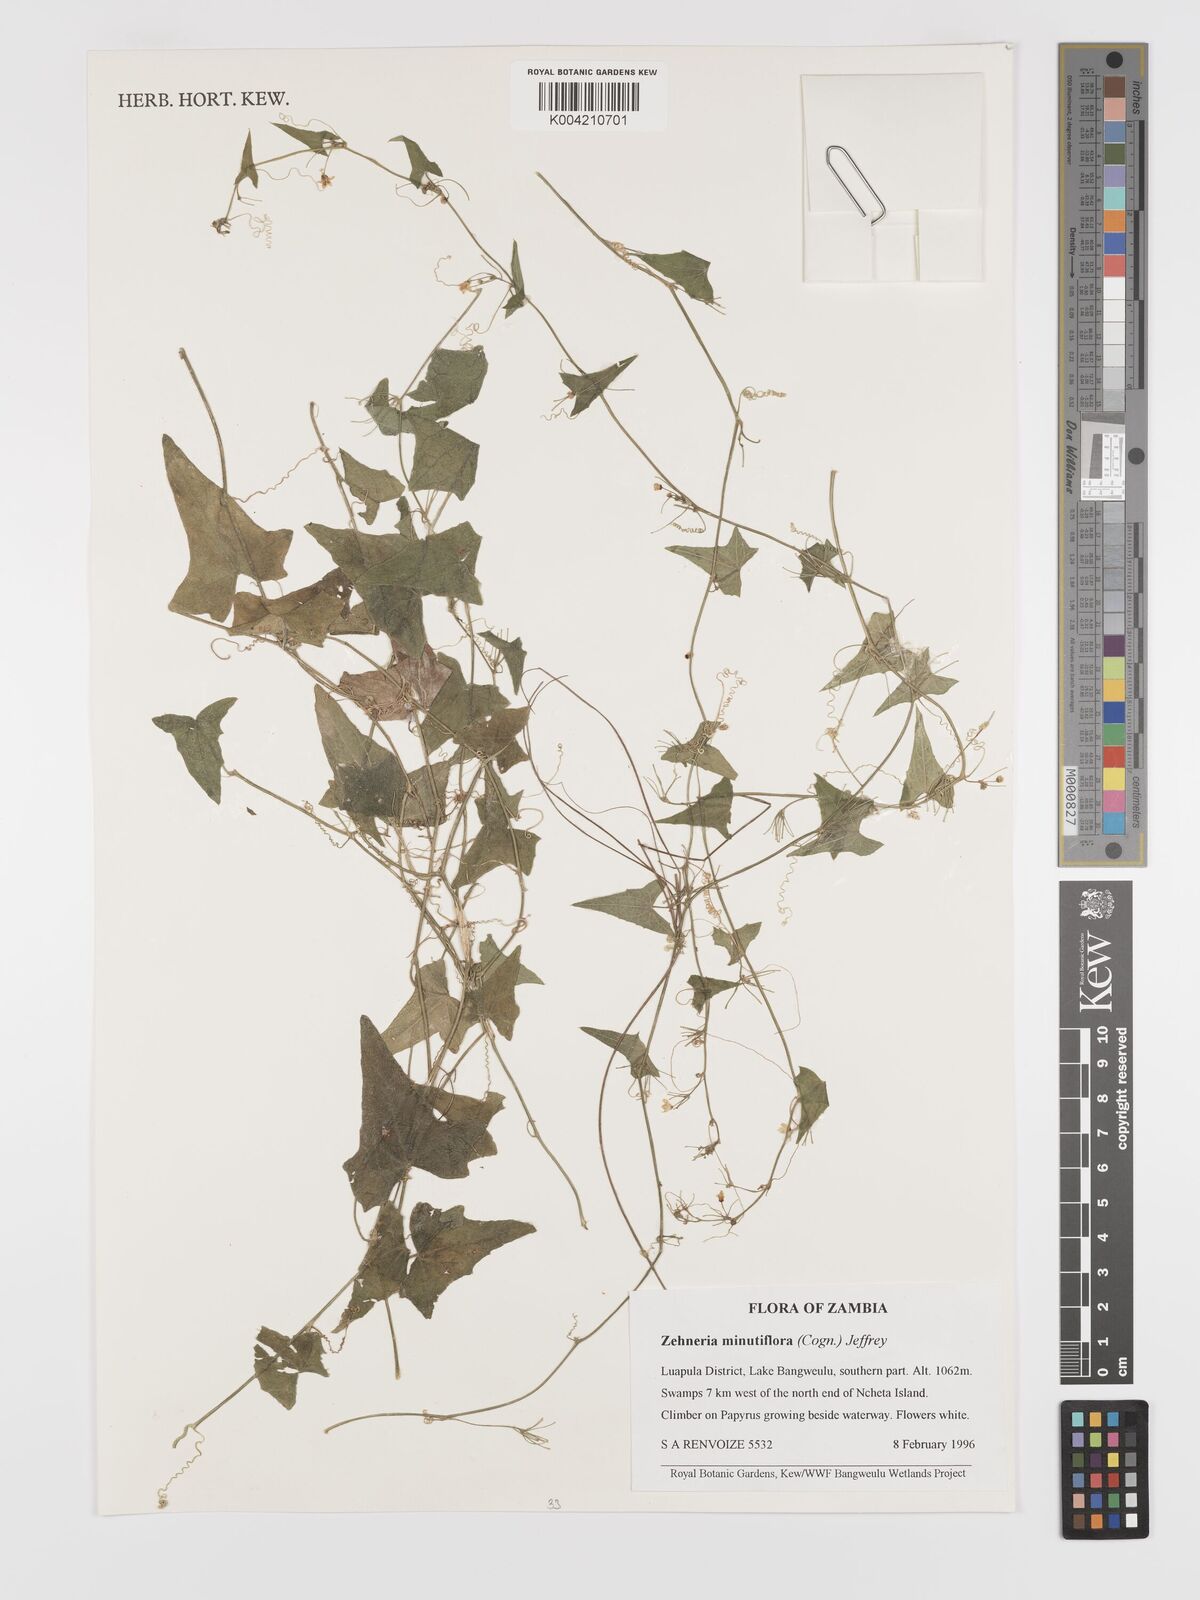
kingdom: Plantae
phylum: Tracheophyta
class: Magnoliopsida
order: Cucurbitales
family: Cucurbitaceae
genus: Zehneria
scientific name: Zehneria minutiflora
